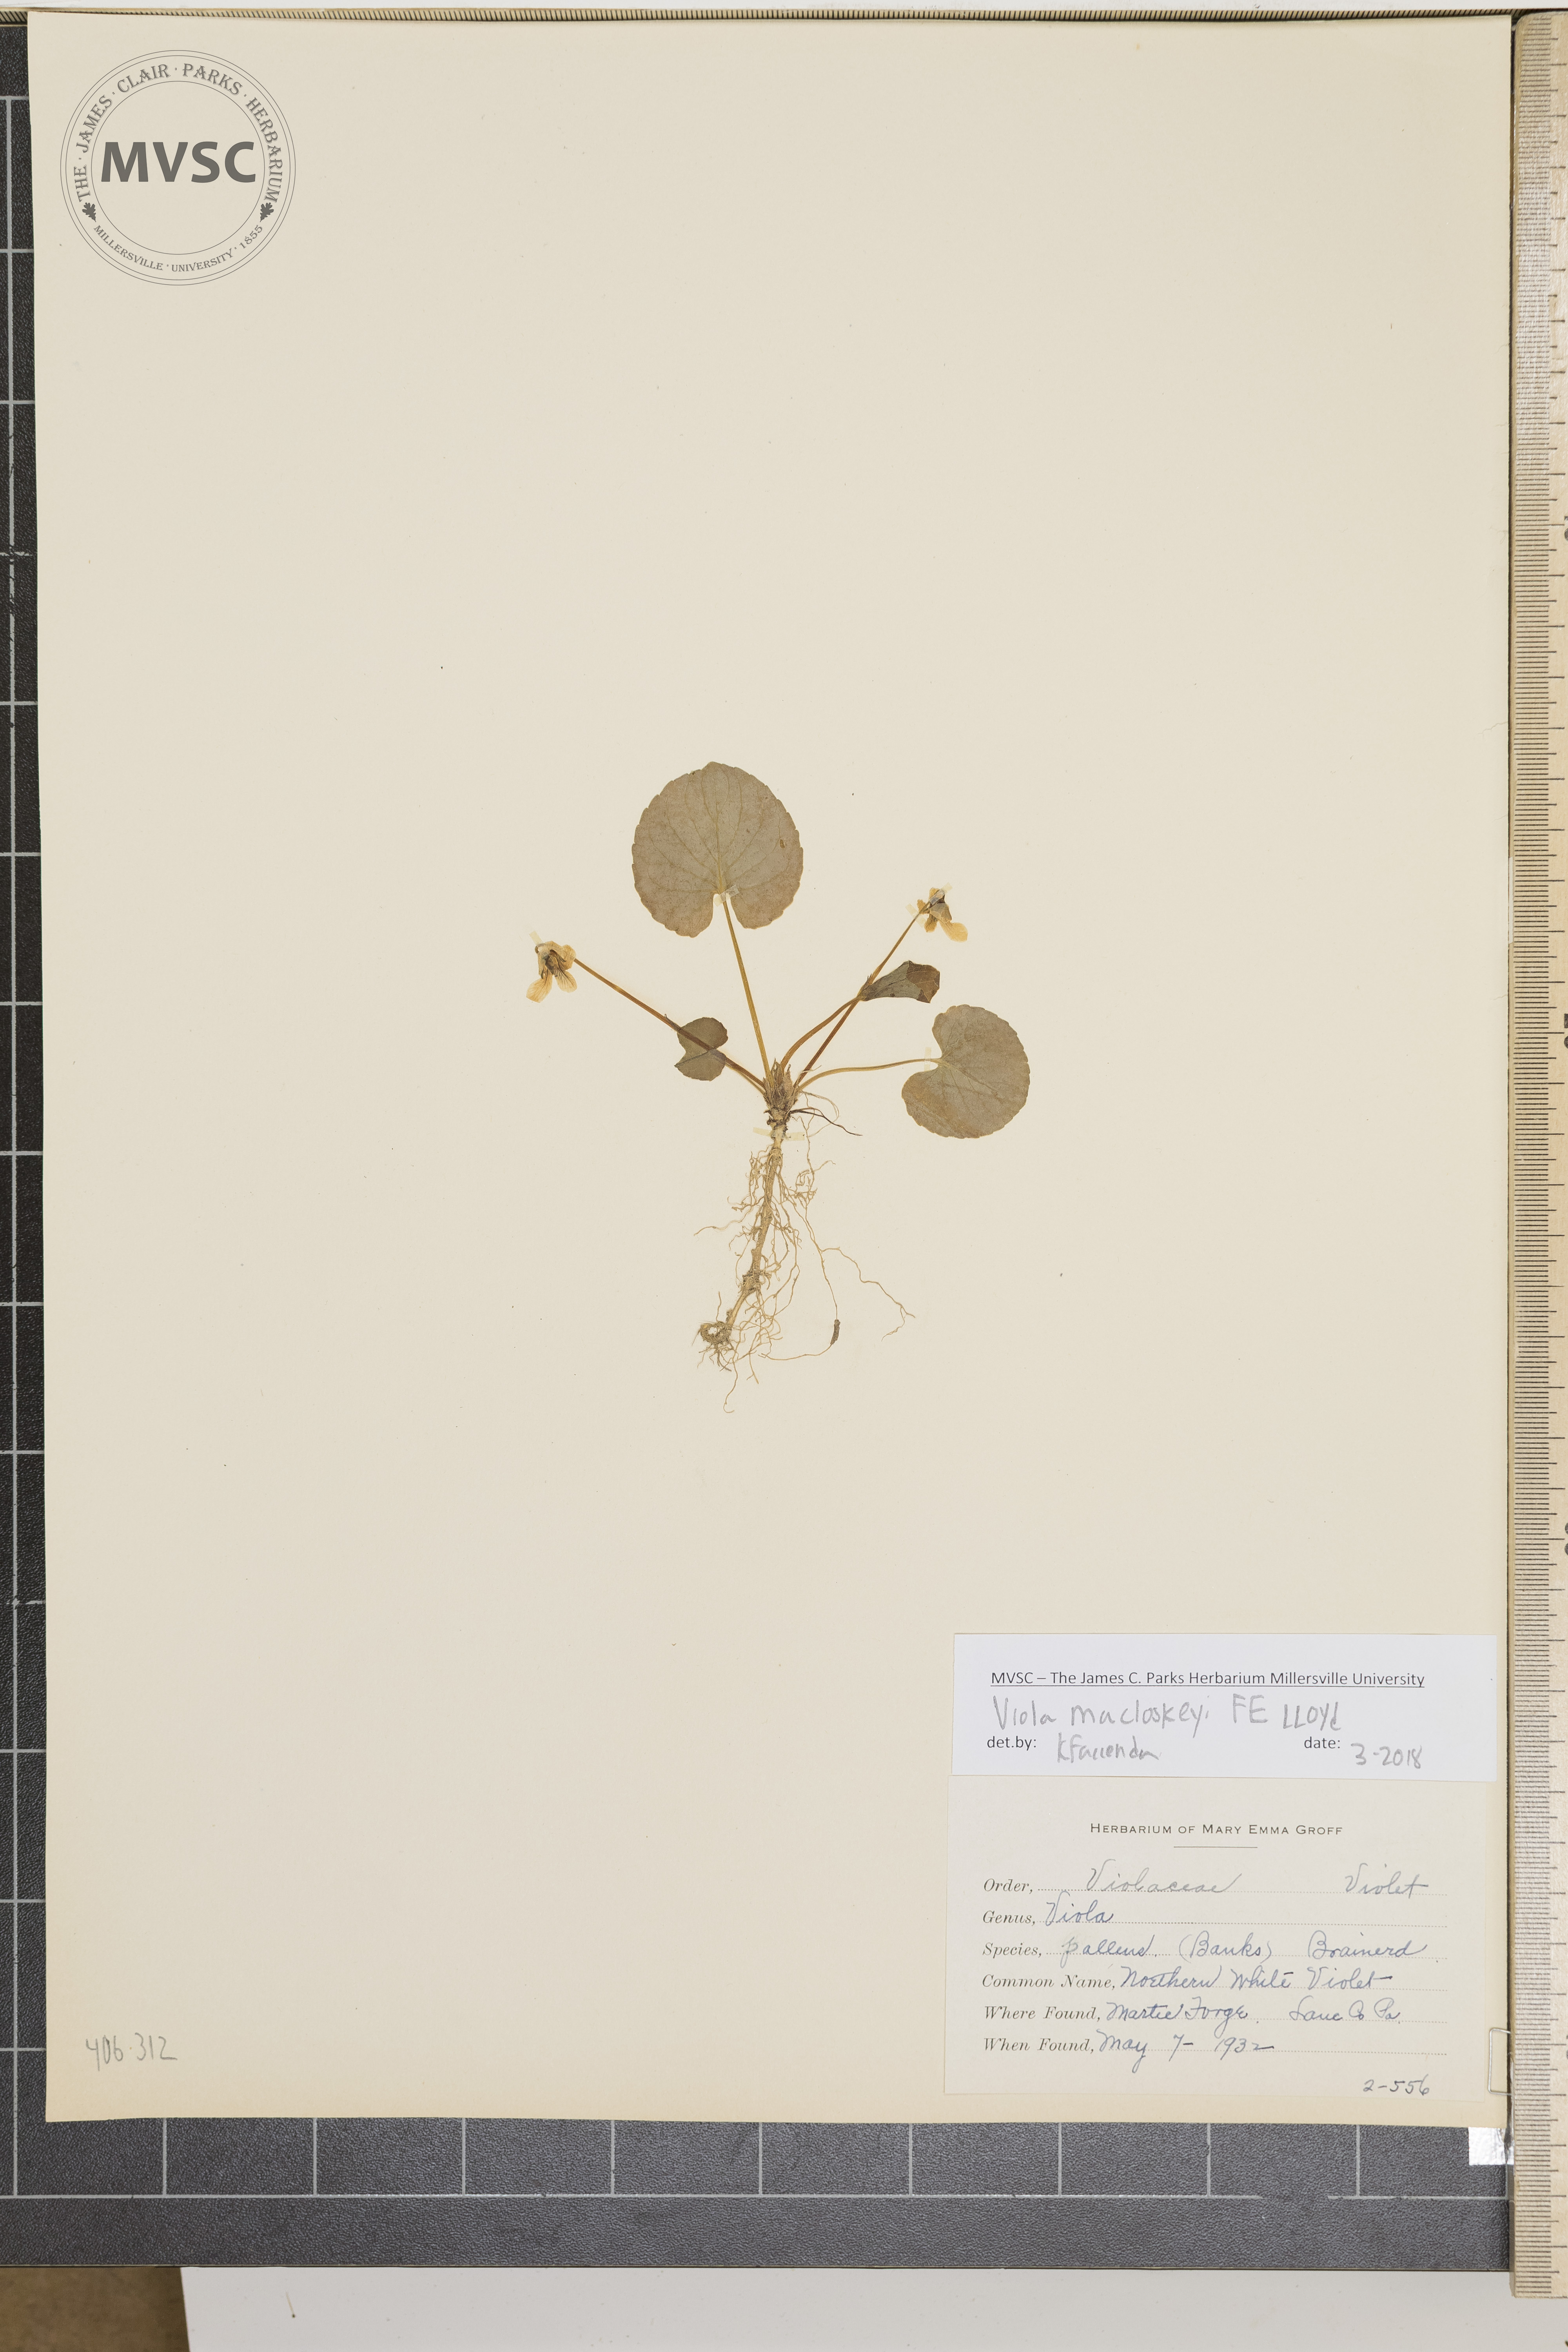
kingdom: Plantae
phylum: Tracheophyta
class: Magnoliopsida
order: Malpighiales
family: Violaceae
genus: Viola
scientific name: Viola macloskeyi
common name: Northern White Violet
